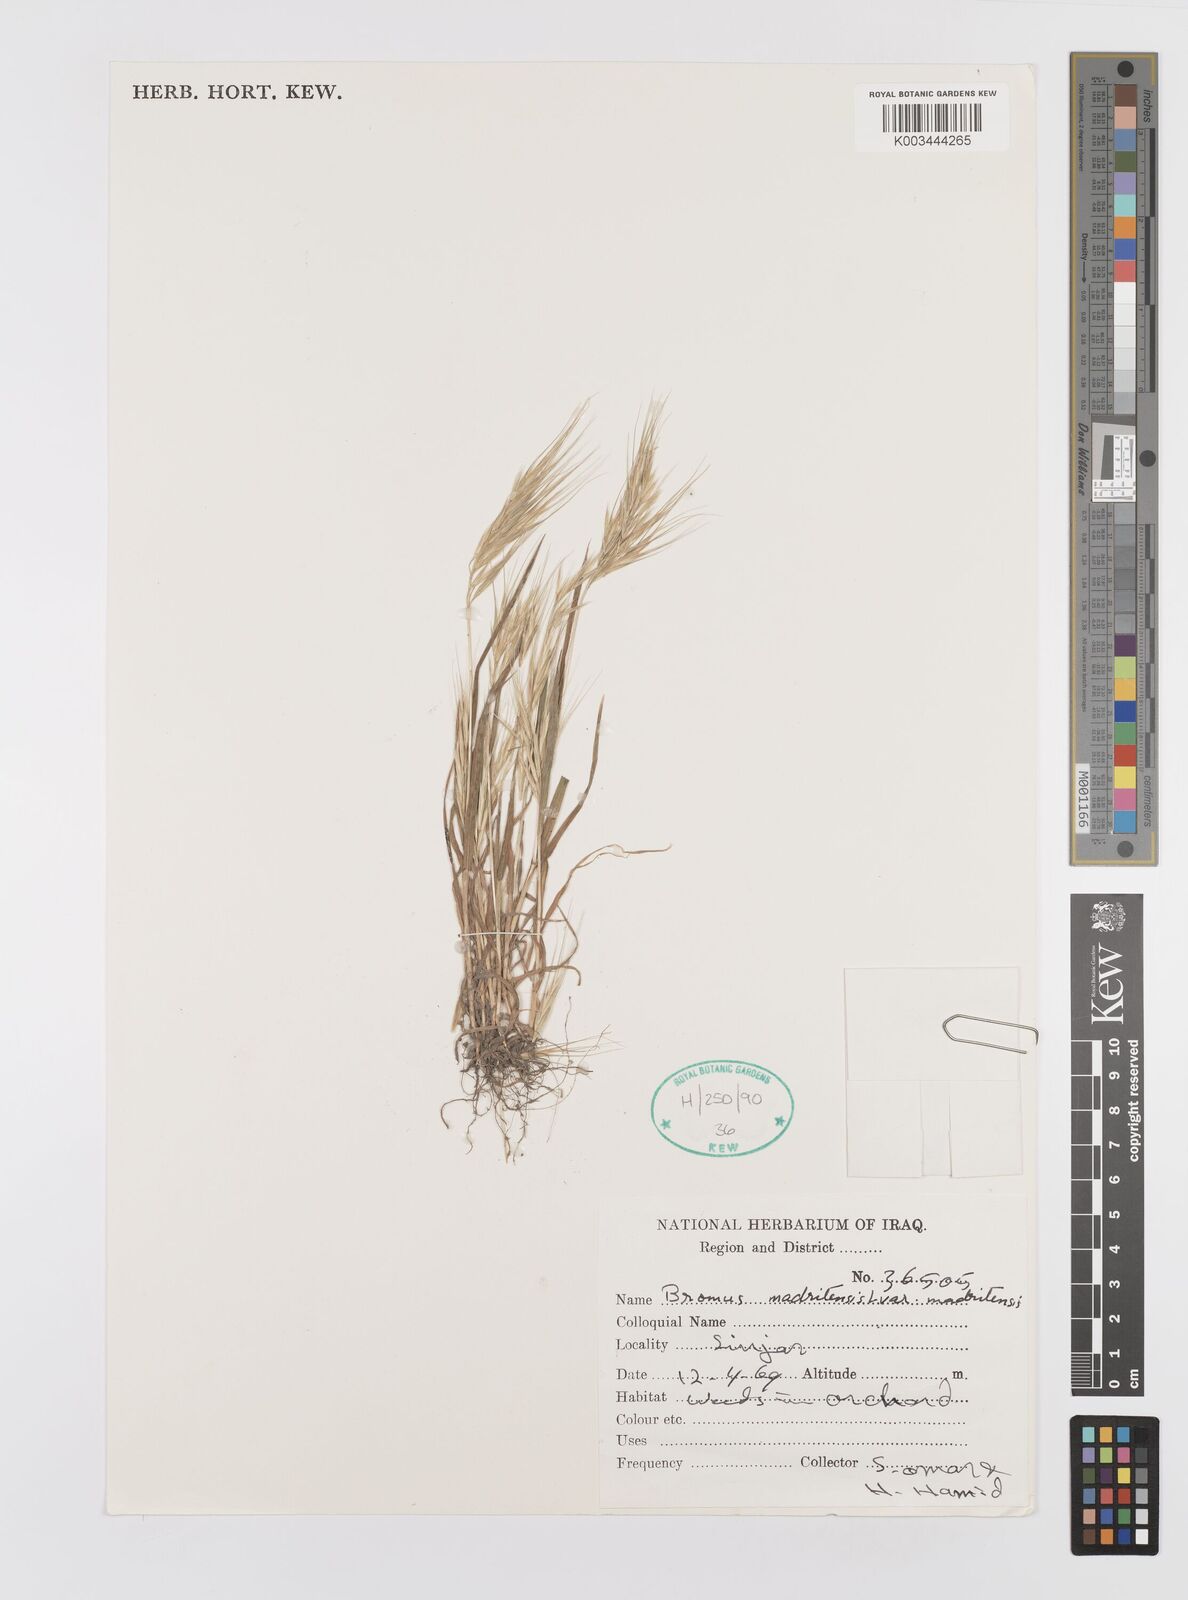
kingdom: Plantae
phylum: Tracheophyta
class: Liliopsida
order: Poales
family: Poaceae
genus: Bromus
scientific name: Bromus madritensis
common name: Compact brome
